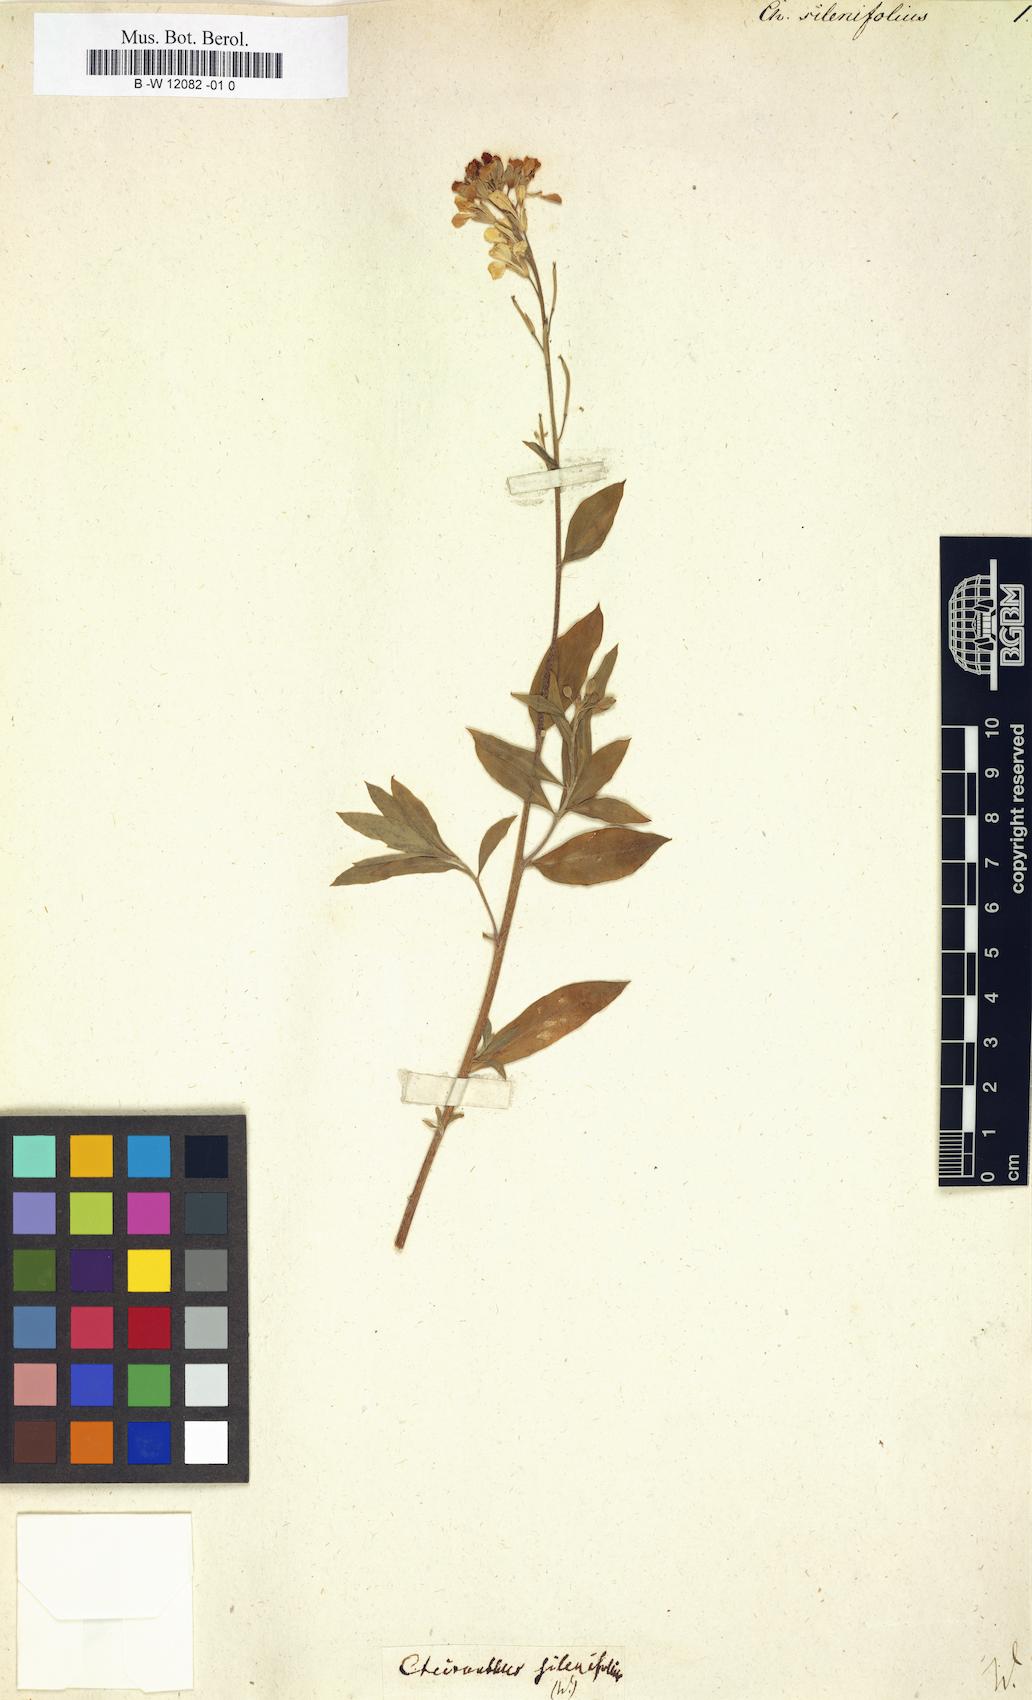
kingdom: Plantae
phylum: Tracheophyta
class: Magnoliopsida
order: Brassicales
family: Brassicaceae
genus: Erysimum
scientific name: Erysimum cheiri
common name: Wallflower
